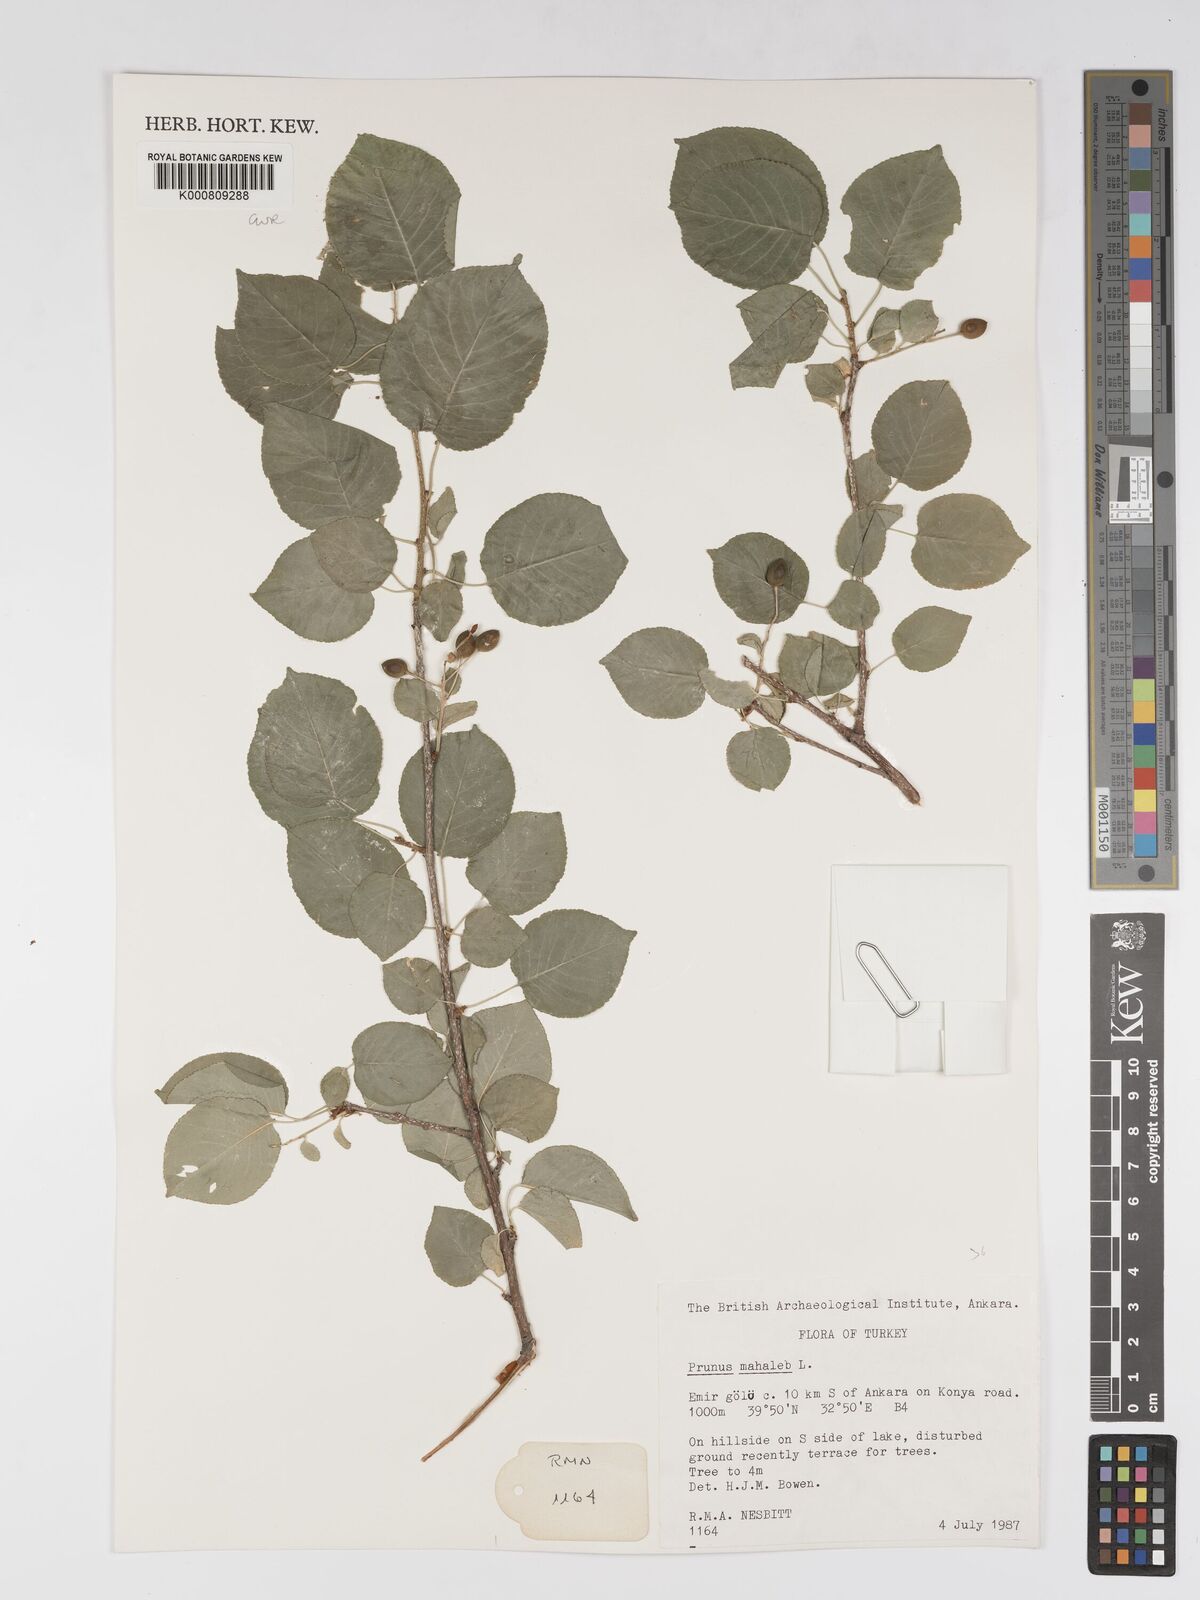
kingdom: Plantae
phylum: Tracheophyta
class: Magnoliopsida
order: Rosales
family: Rosaceae
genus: Prunus
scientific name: Prunus mahaleb
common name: Mahaleb cherry
